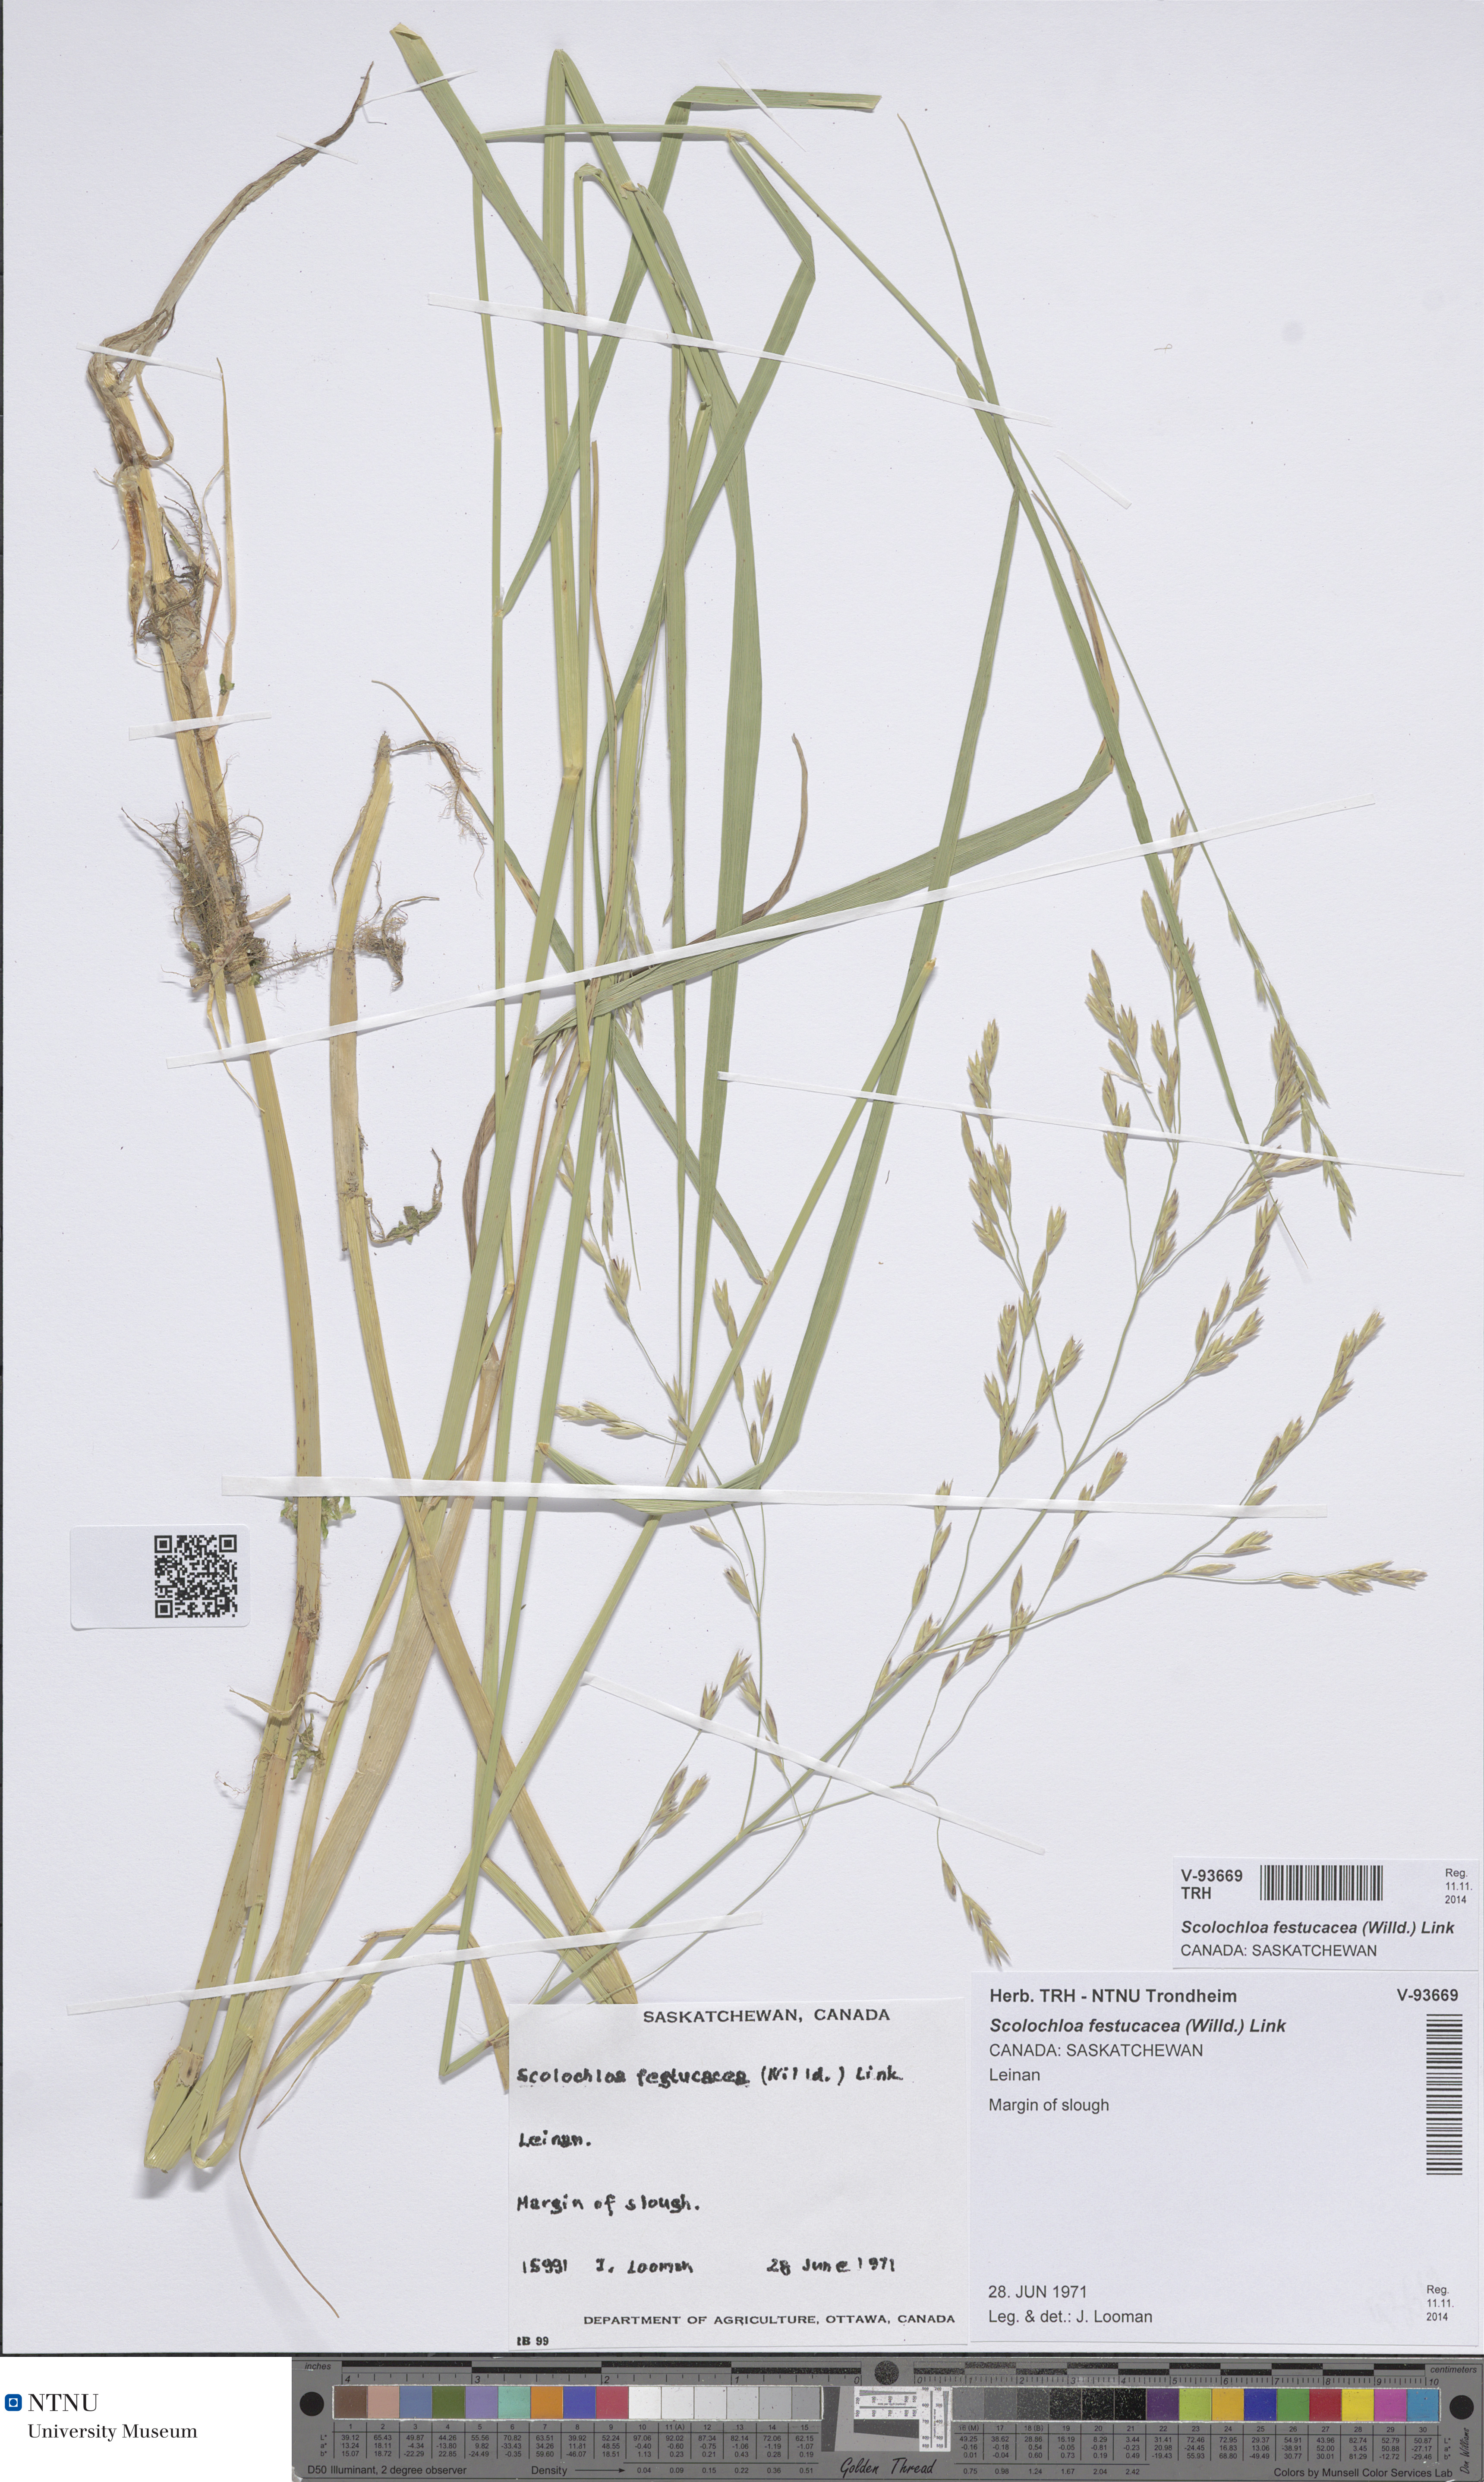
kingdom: Plantae
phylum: Tracheophyta
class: Liliopsida
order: Poales
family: Poaceae
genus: Scolochloa
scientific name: Scolochloa festucacea
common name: Common rivergrass
